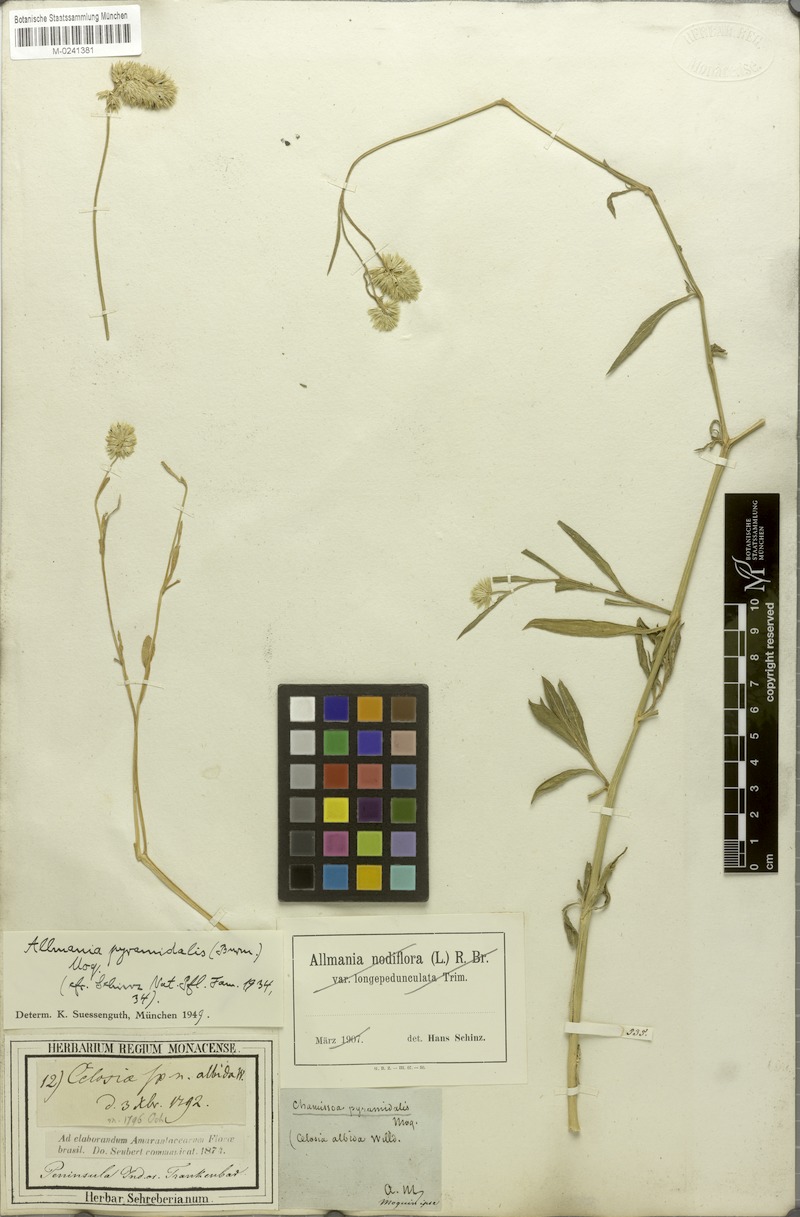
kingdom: Plantae
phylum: Tracheophyta
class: Magnoliopsida
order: Caryophyllales
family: Amaranthaceae
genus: Allmania
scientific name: Allmania nodiflora
